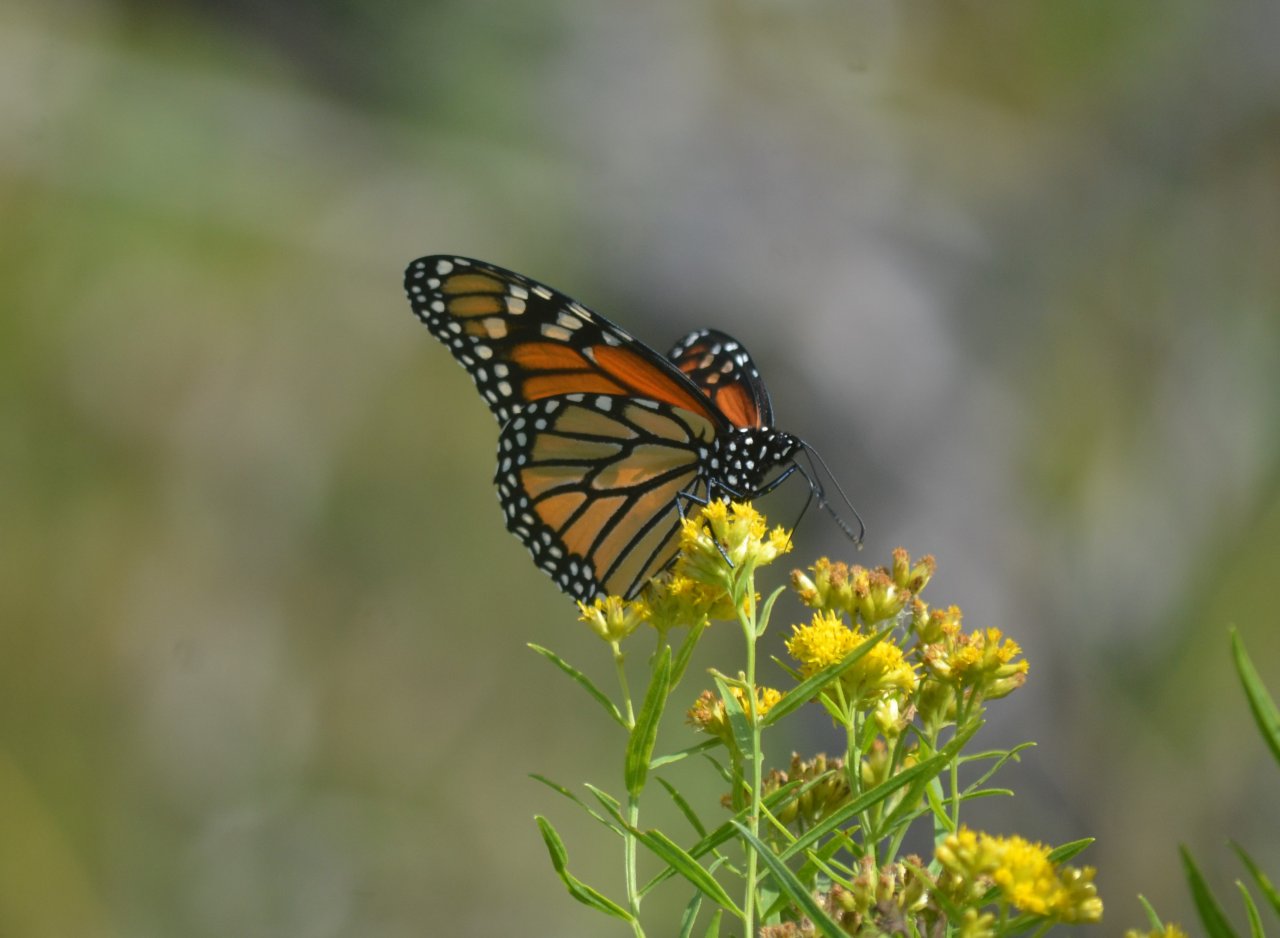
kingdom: Animalia
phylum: Arthropoda
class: Insecta
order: Lepidoptera
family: Nymphalidae
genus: Danaus
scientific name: Danaus plexippus
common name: Monarch
